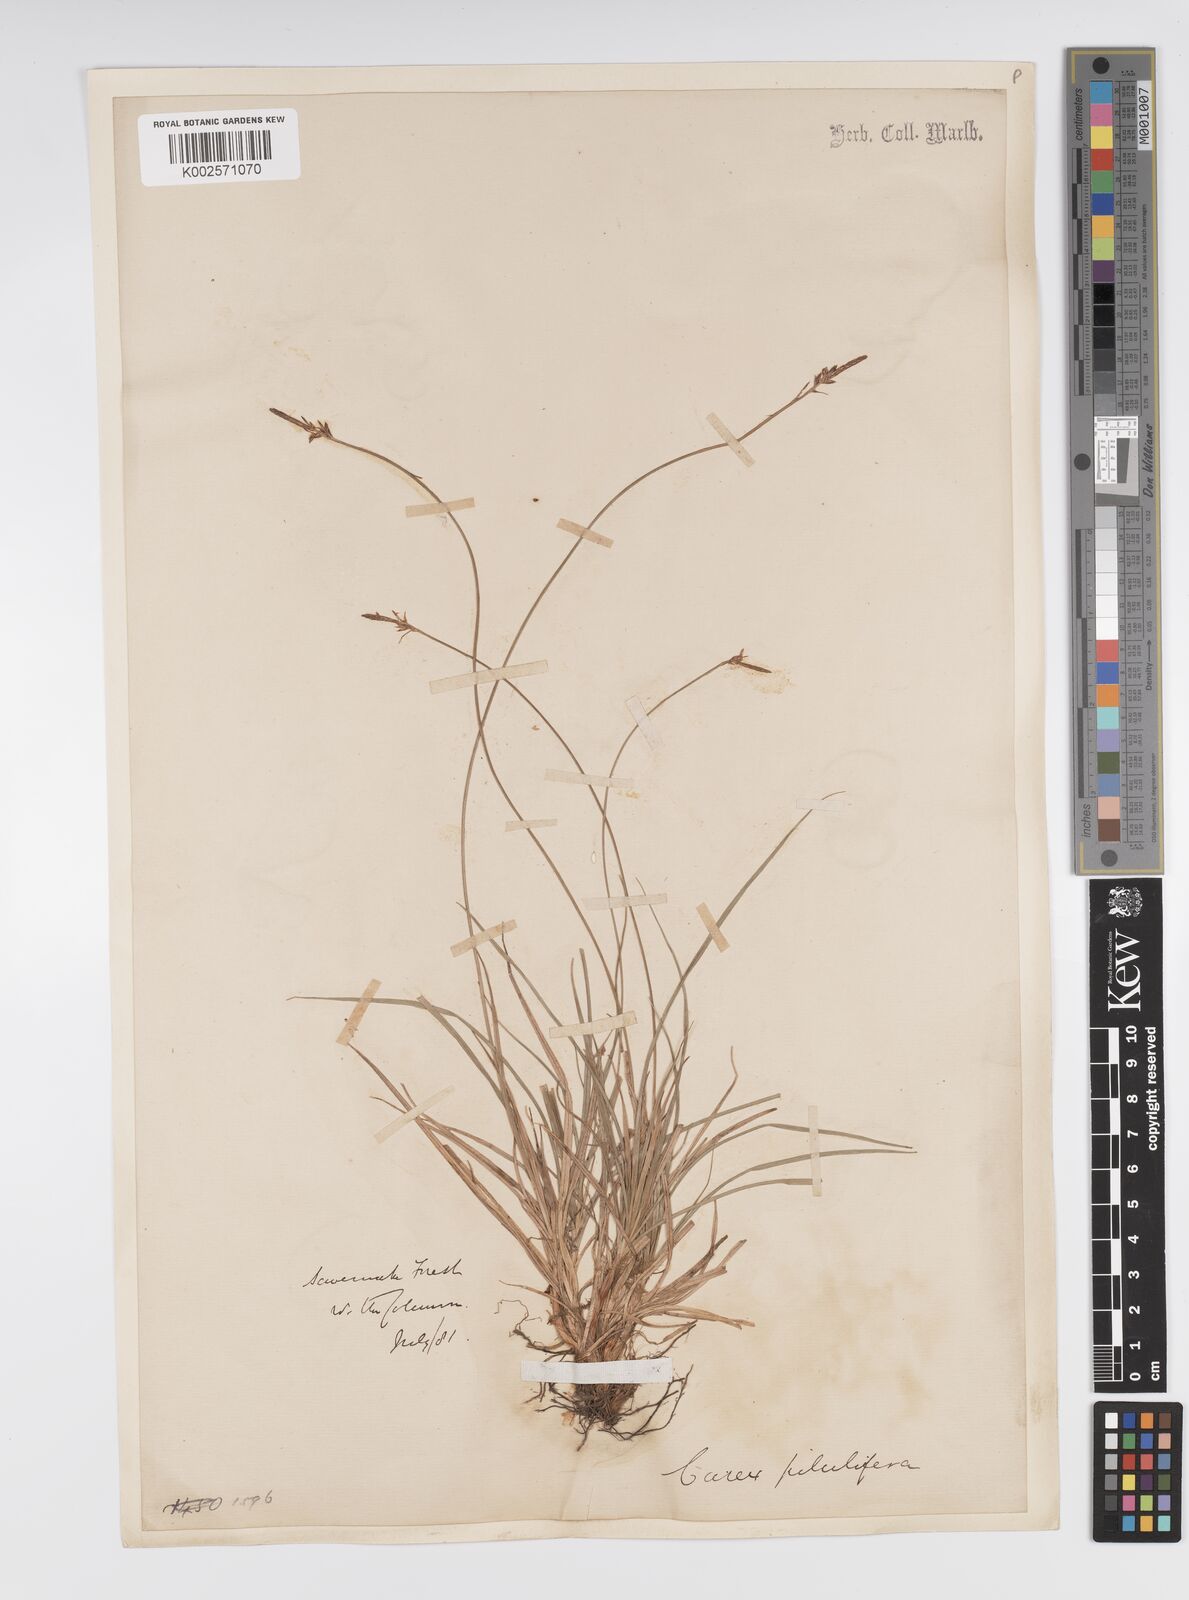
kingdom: Plantae
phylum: Tracheophyta
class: Liliopsida
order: Poales
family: Cyperaceae
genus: Carex
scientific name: Carex pilulifera
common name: Pill sedge
